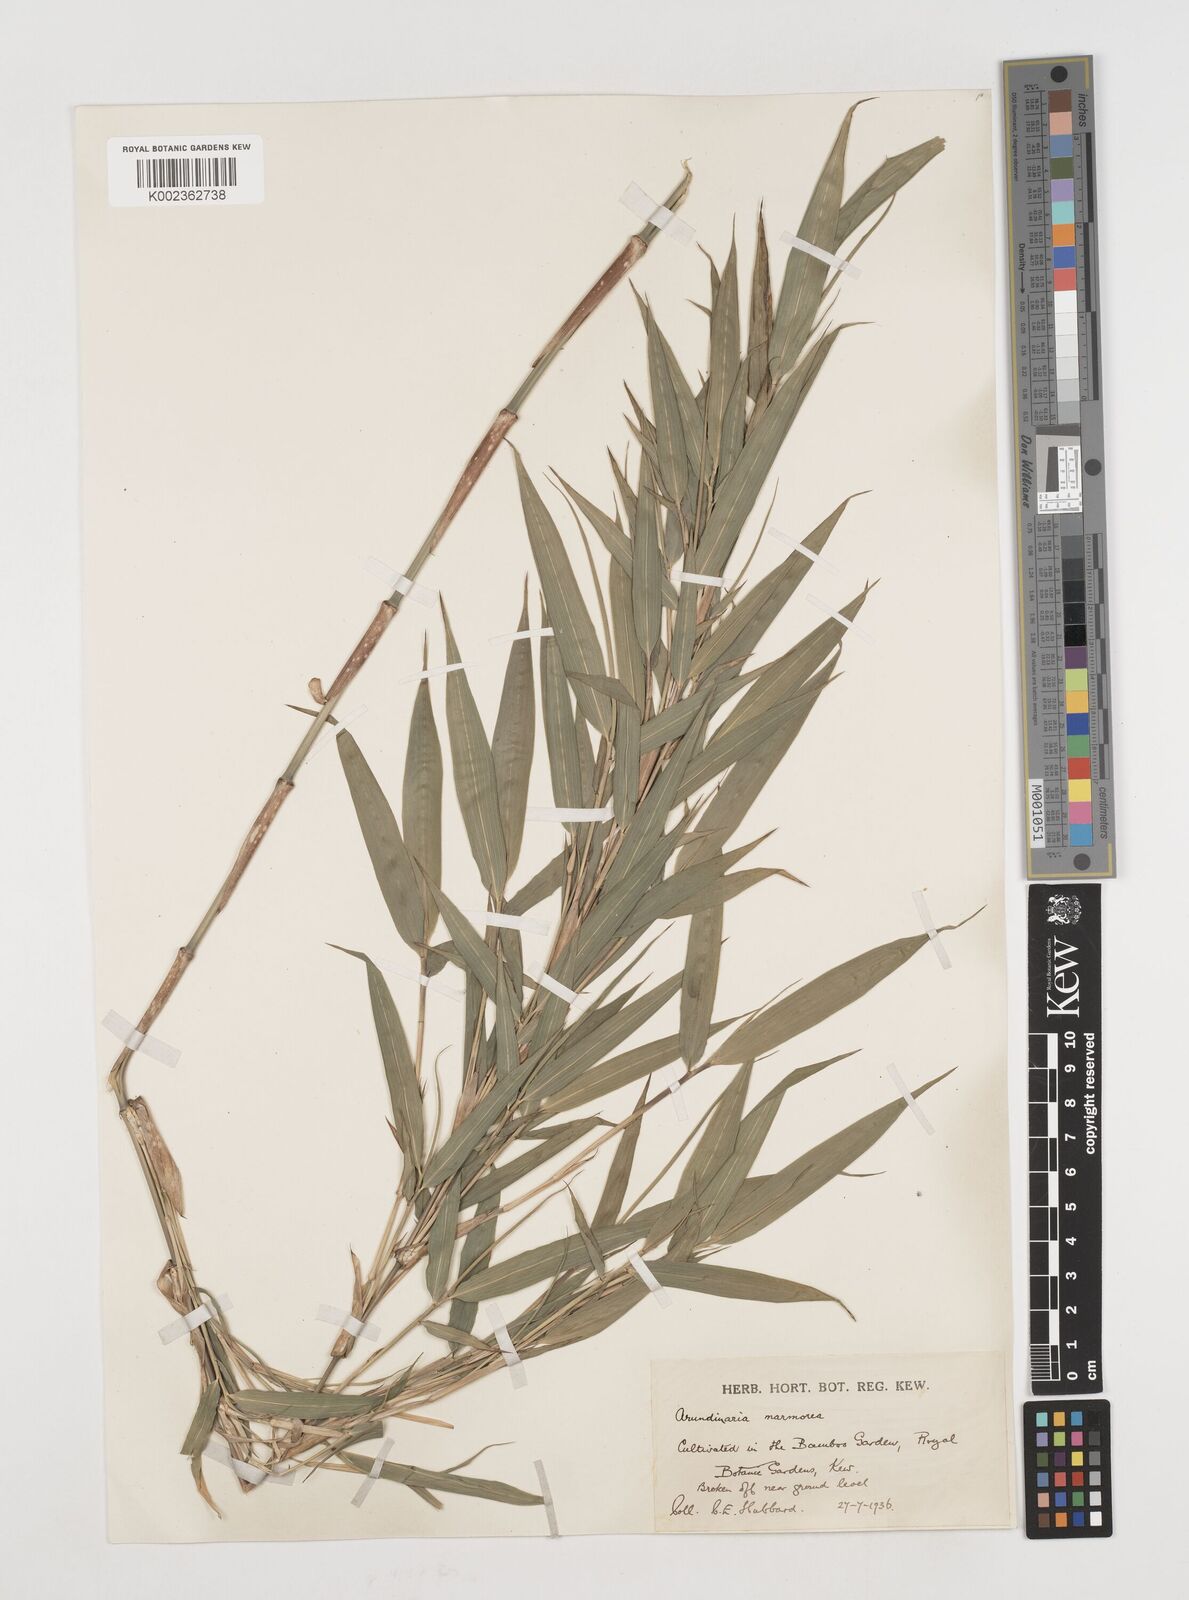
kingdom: Plantae
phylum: Tracheophyta
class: Liliopsida
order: Poales
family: Poaceae
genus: Chimonobambusa
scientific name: Chimonobambusa marmorea
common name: Marbled bamboo
